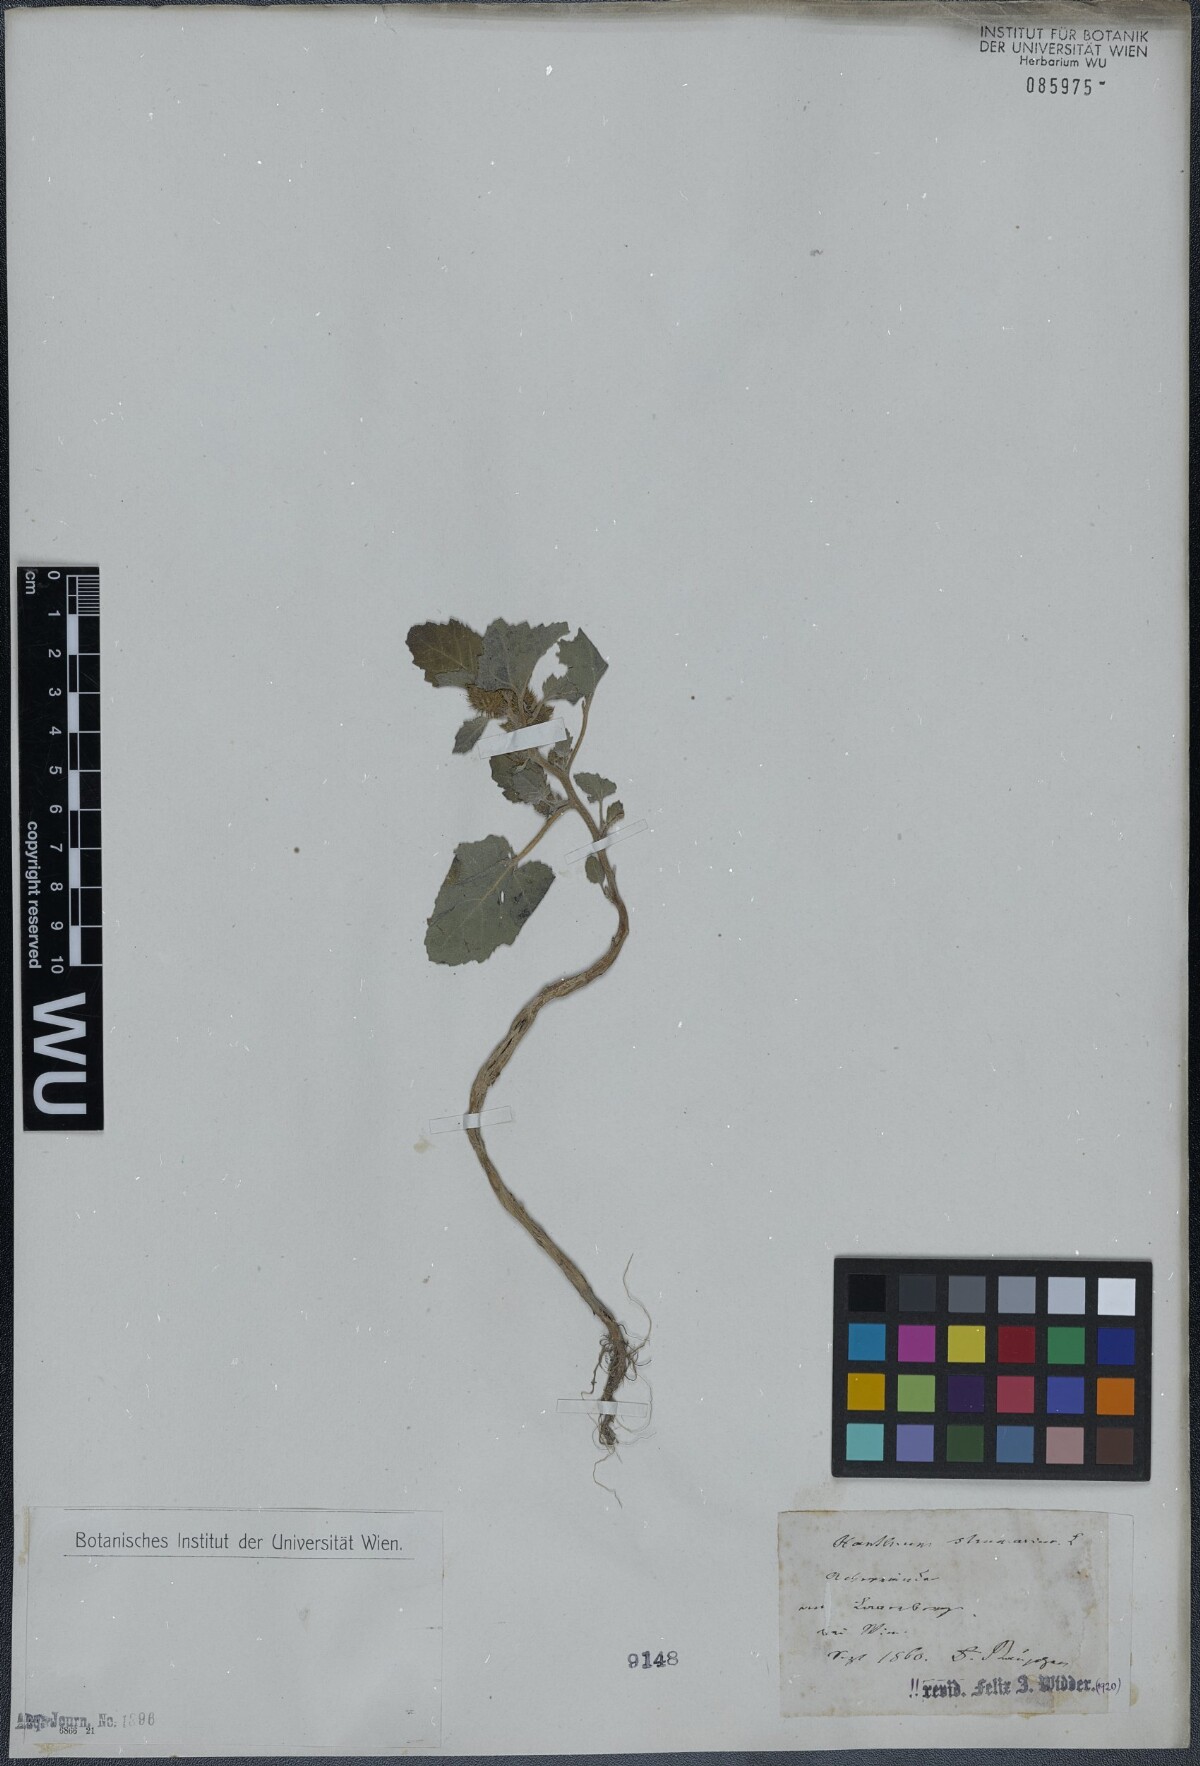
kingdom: Plantae
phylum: Tracheophyta
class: Magnoliopsida
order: Asterales
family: Asteraceae
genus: Xanthium
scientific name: Xanthium strumarium
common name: Rough cocklebur
